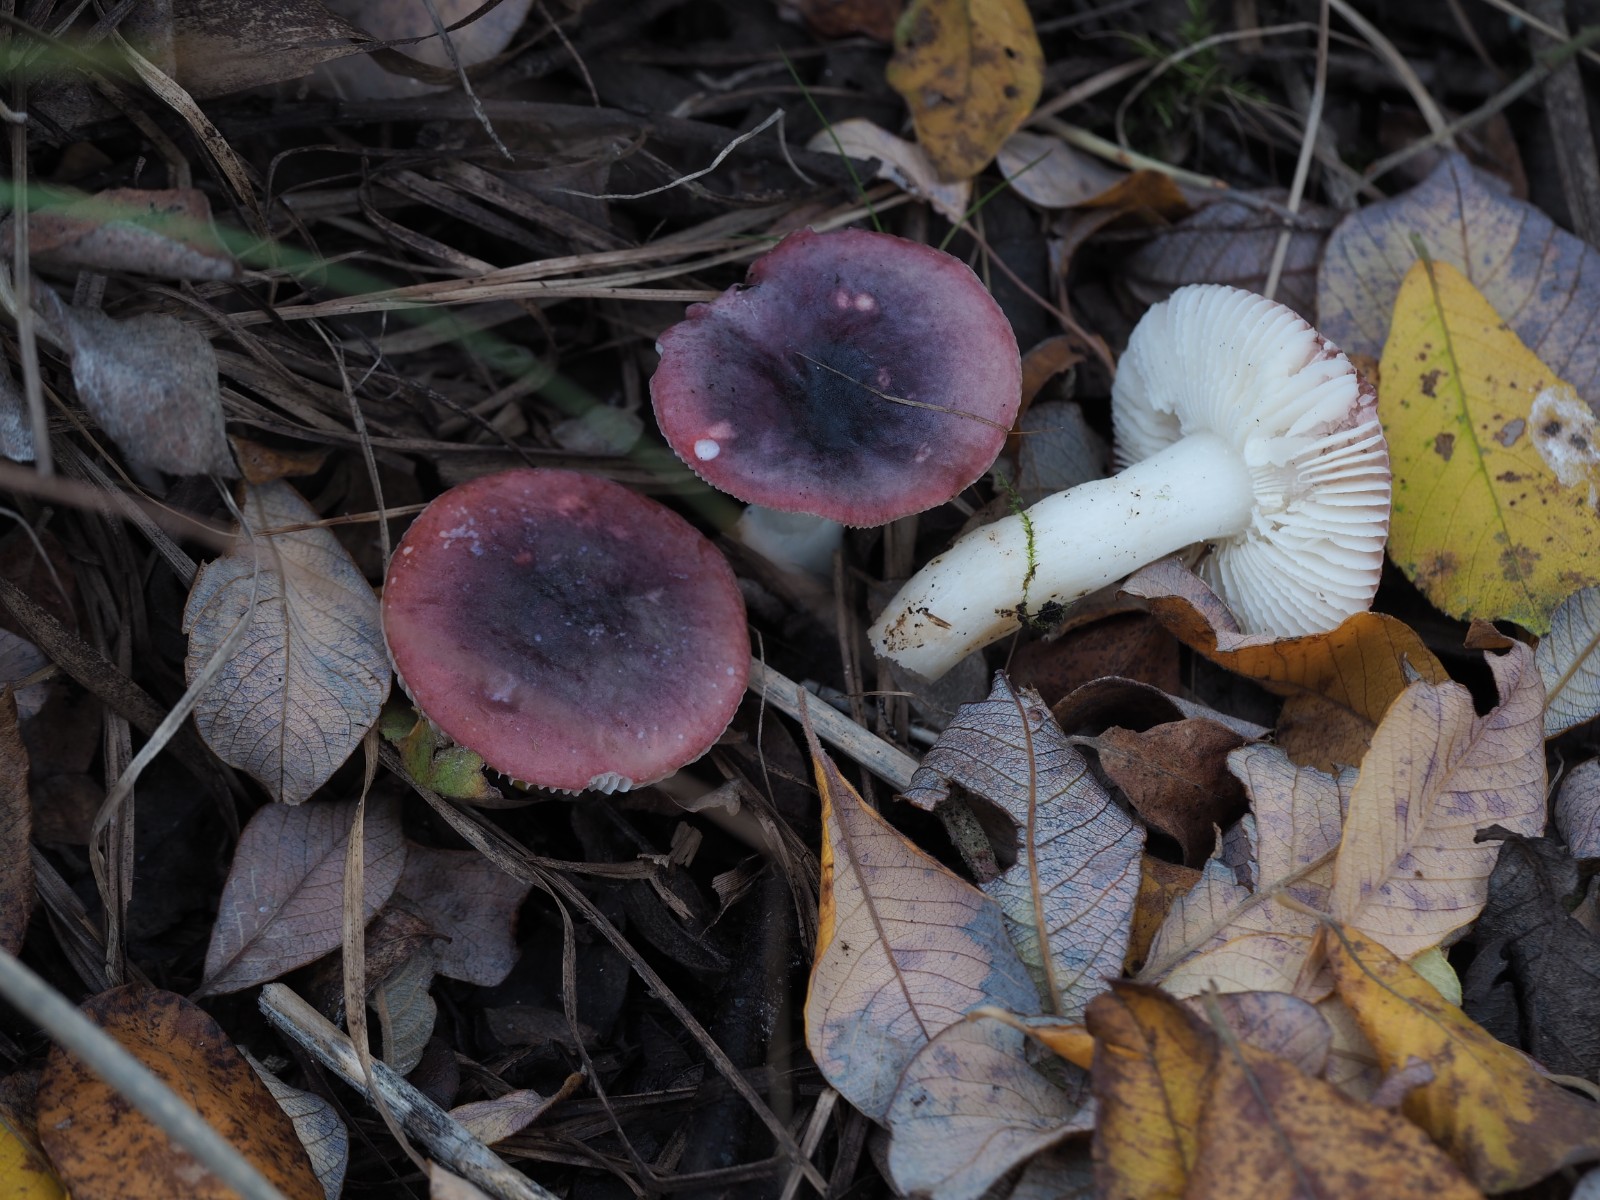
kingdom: Fungi
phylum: Basidiomycota
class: Agaricomycetes
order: Russulales
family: Russulaceae
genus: Russula
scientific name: Russula laccata
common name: klit-skørhat
